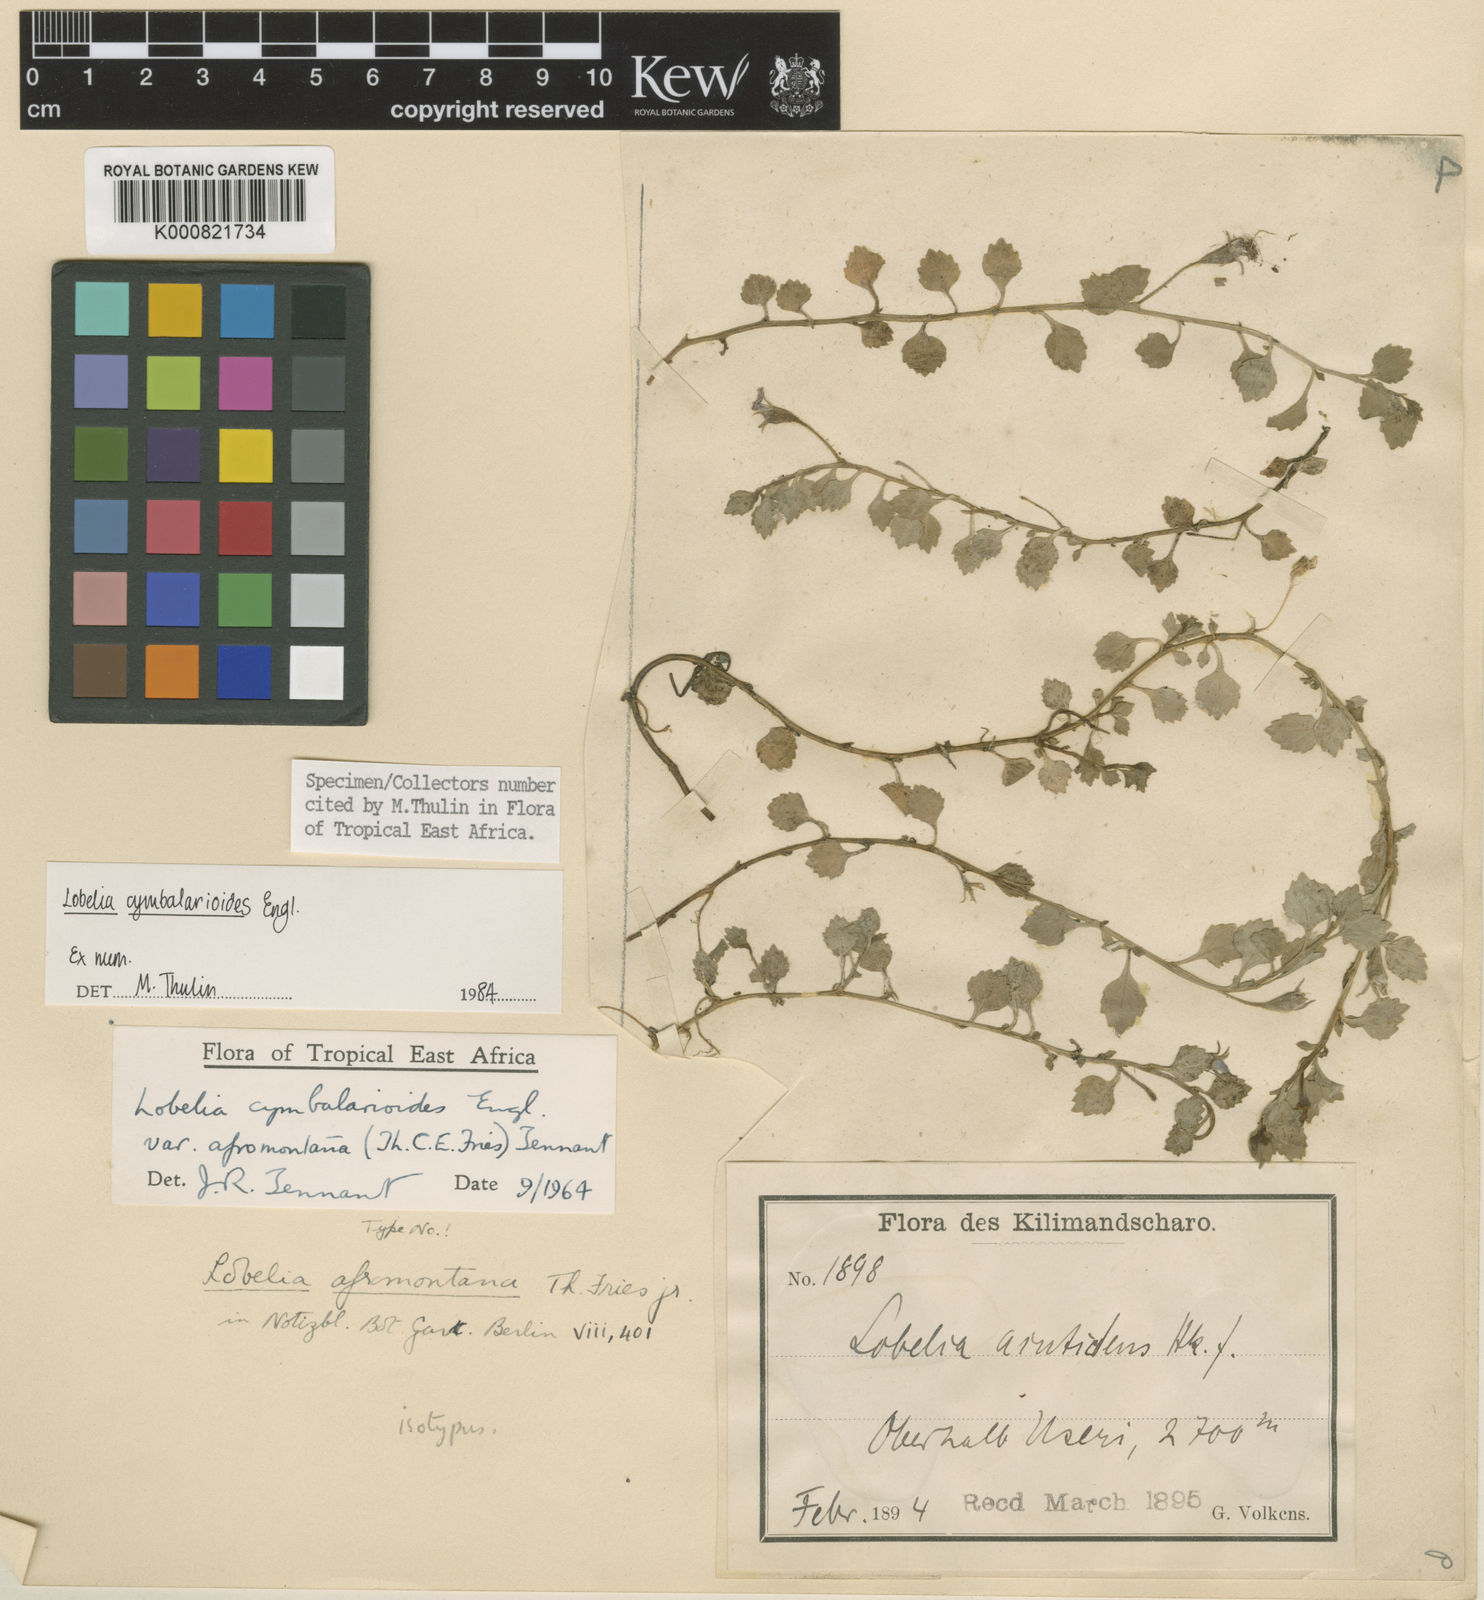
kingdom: Plantae
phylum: Tracheophyta
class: Magnoliopsida
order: Asterales
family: Campanulaceae
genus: Lobelia
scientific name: Lobelia cymbalarioides
